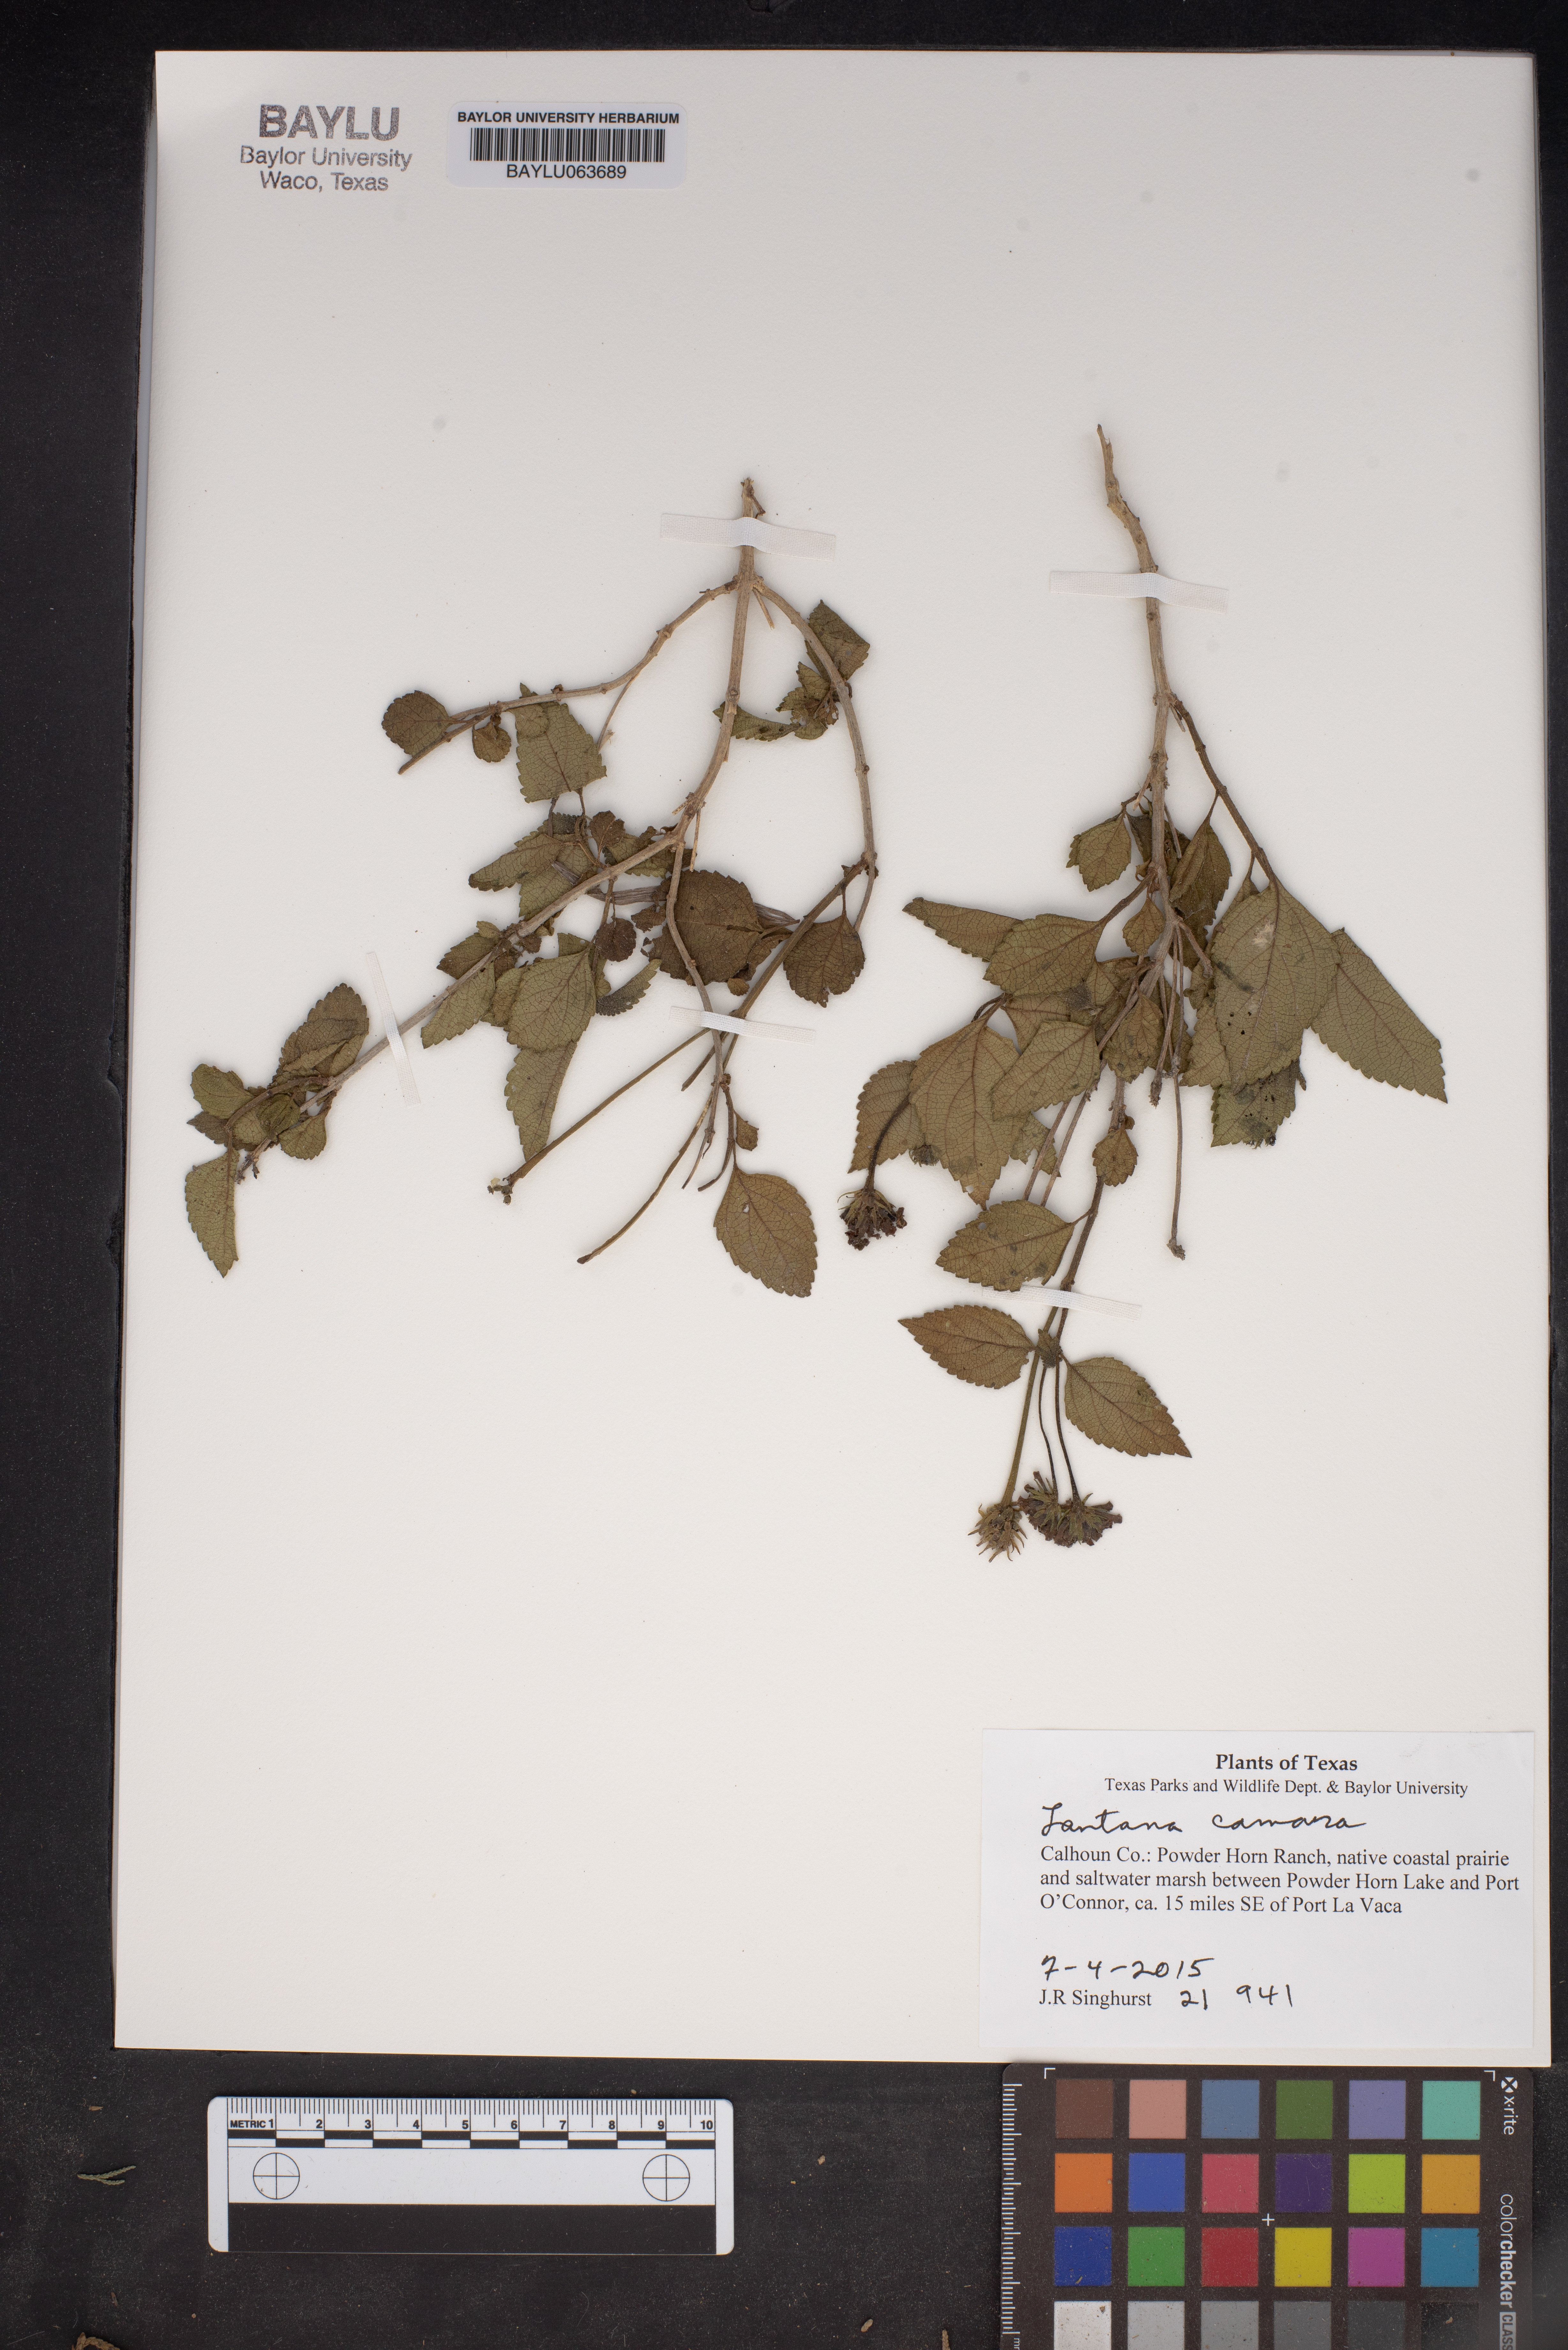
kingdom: Plantae
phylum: Tracheophyta
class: Magnoliopsida
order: Lamiales
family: Verbenaceae
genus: Lantana
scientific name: Lantana camara
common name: Lantana
